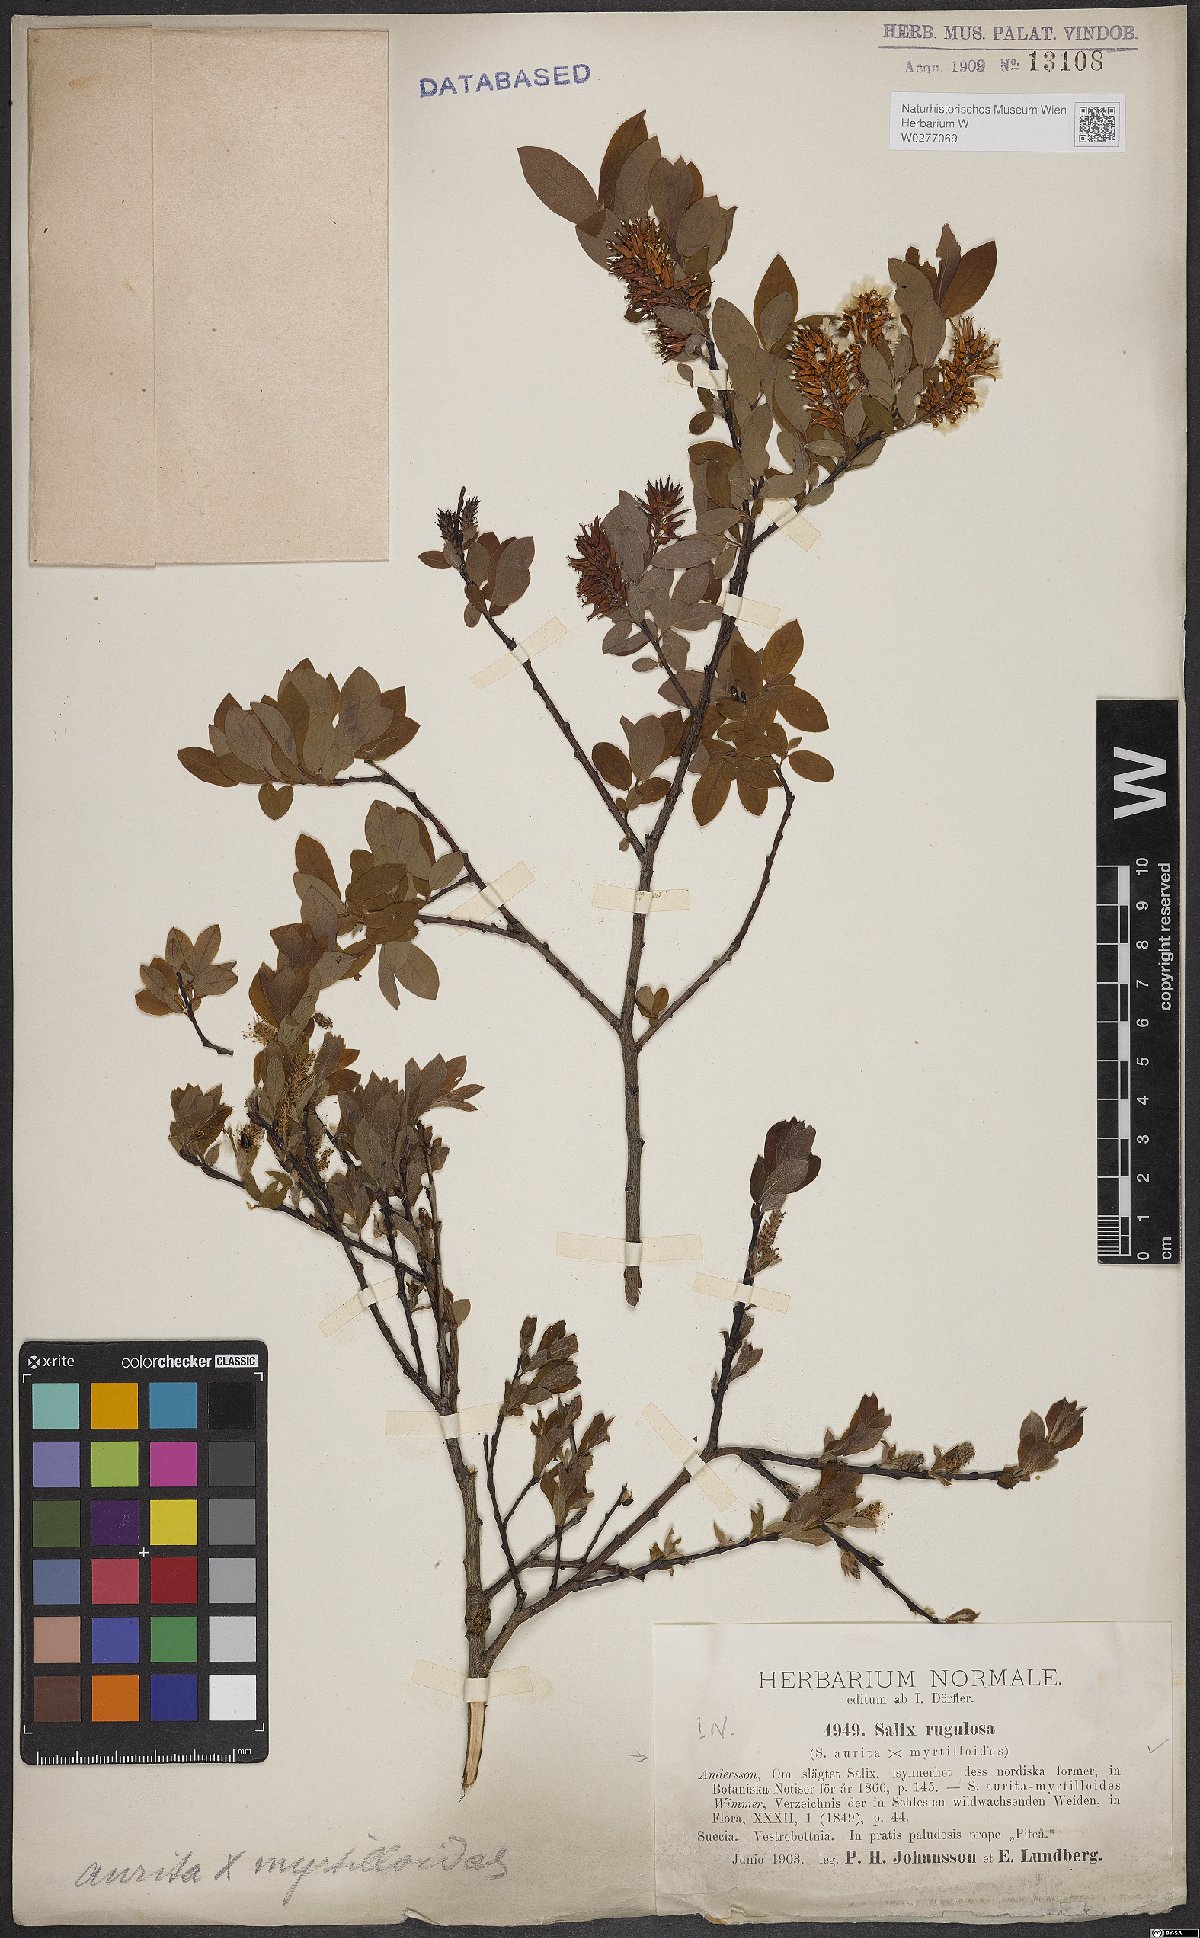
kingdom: Plantae
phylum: Tracheophyta
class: Magnoliopsida
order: Malpighiales
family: Salicaceae
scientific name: Salicaceae
